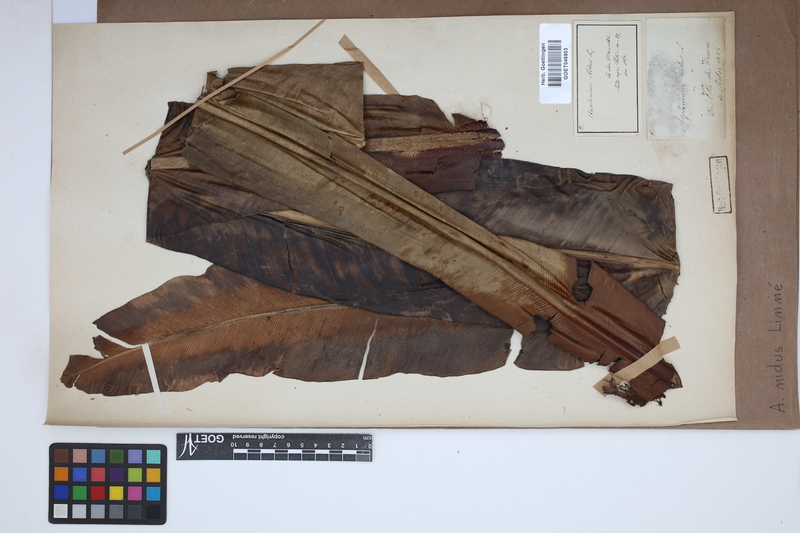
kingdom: Plantae
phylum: Tracheophyta
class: Polypodiopsida
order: Polypodiales
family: Aspleniaceae
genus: Asplenium
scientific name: Asplenium nidus
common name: Bird's-nest fern
